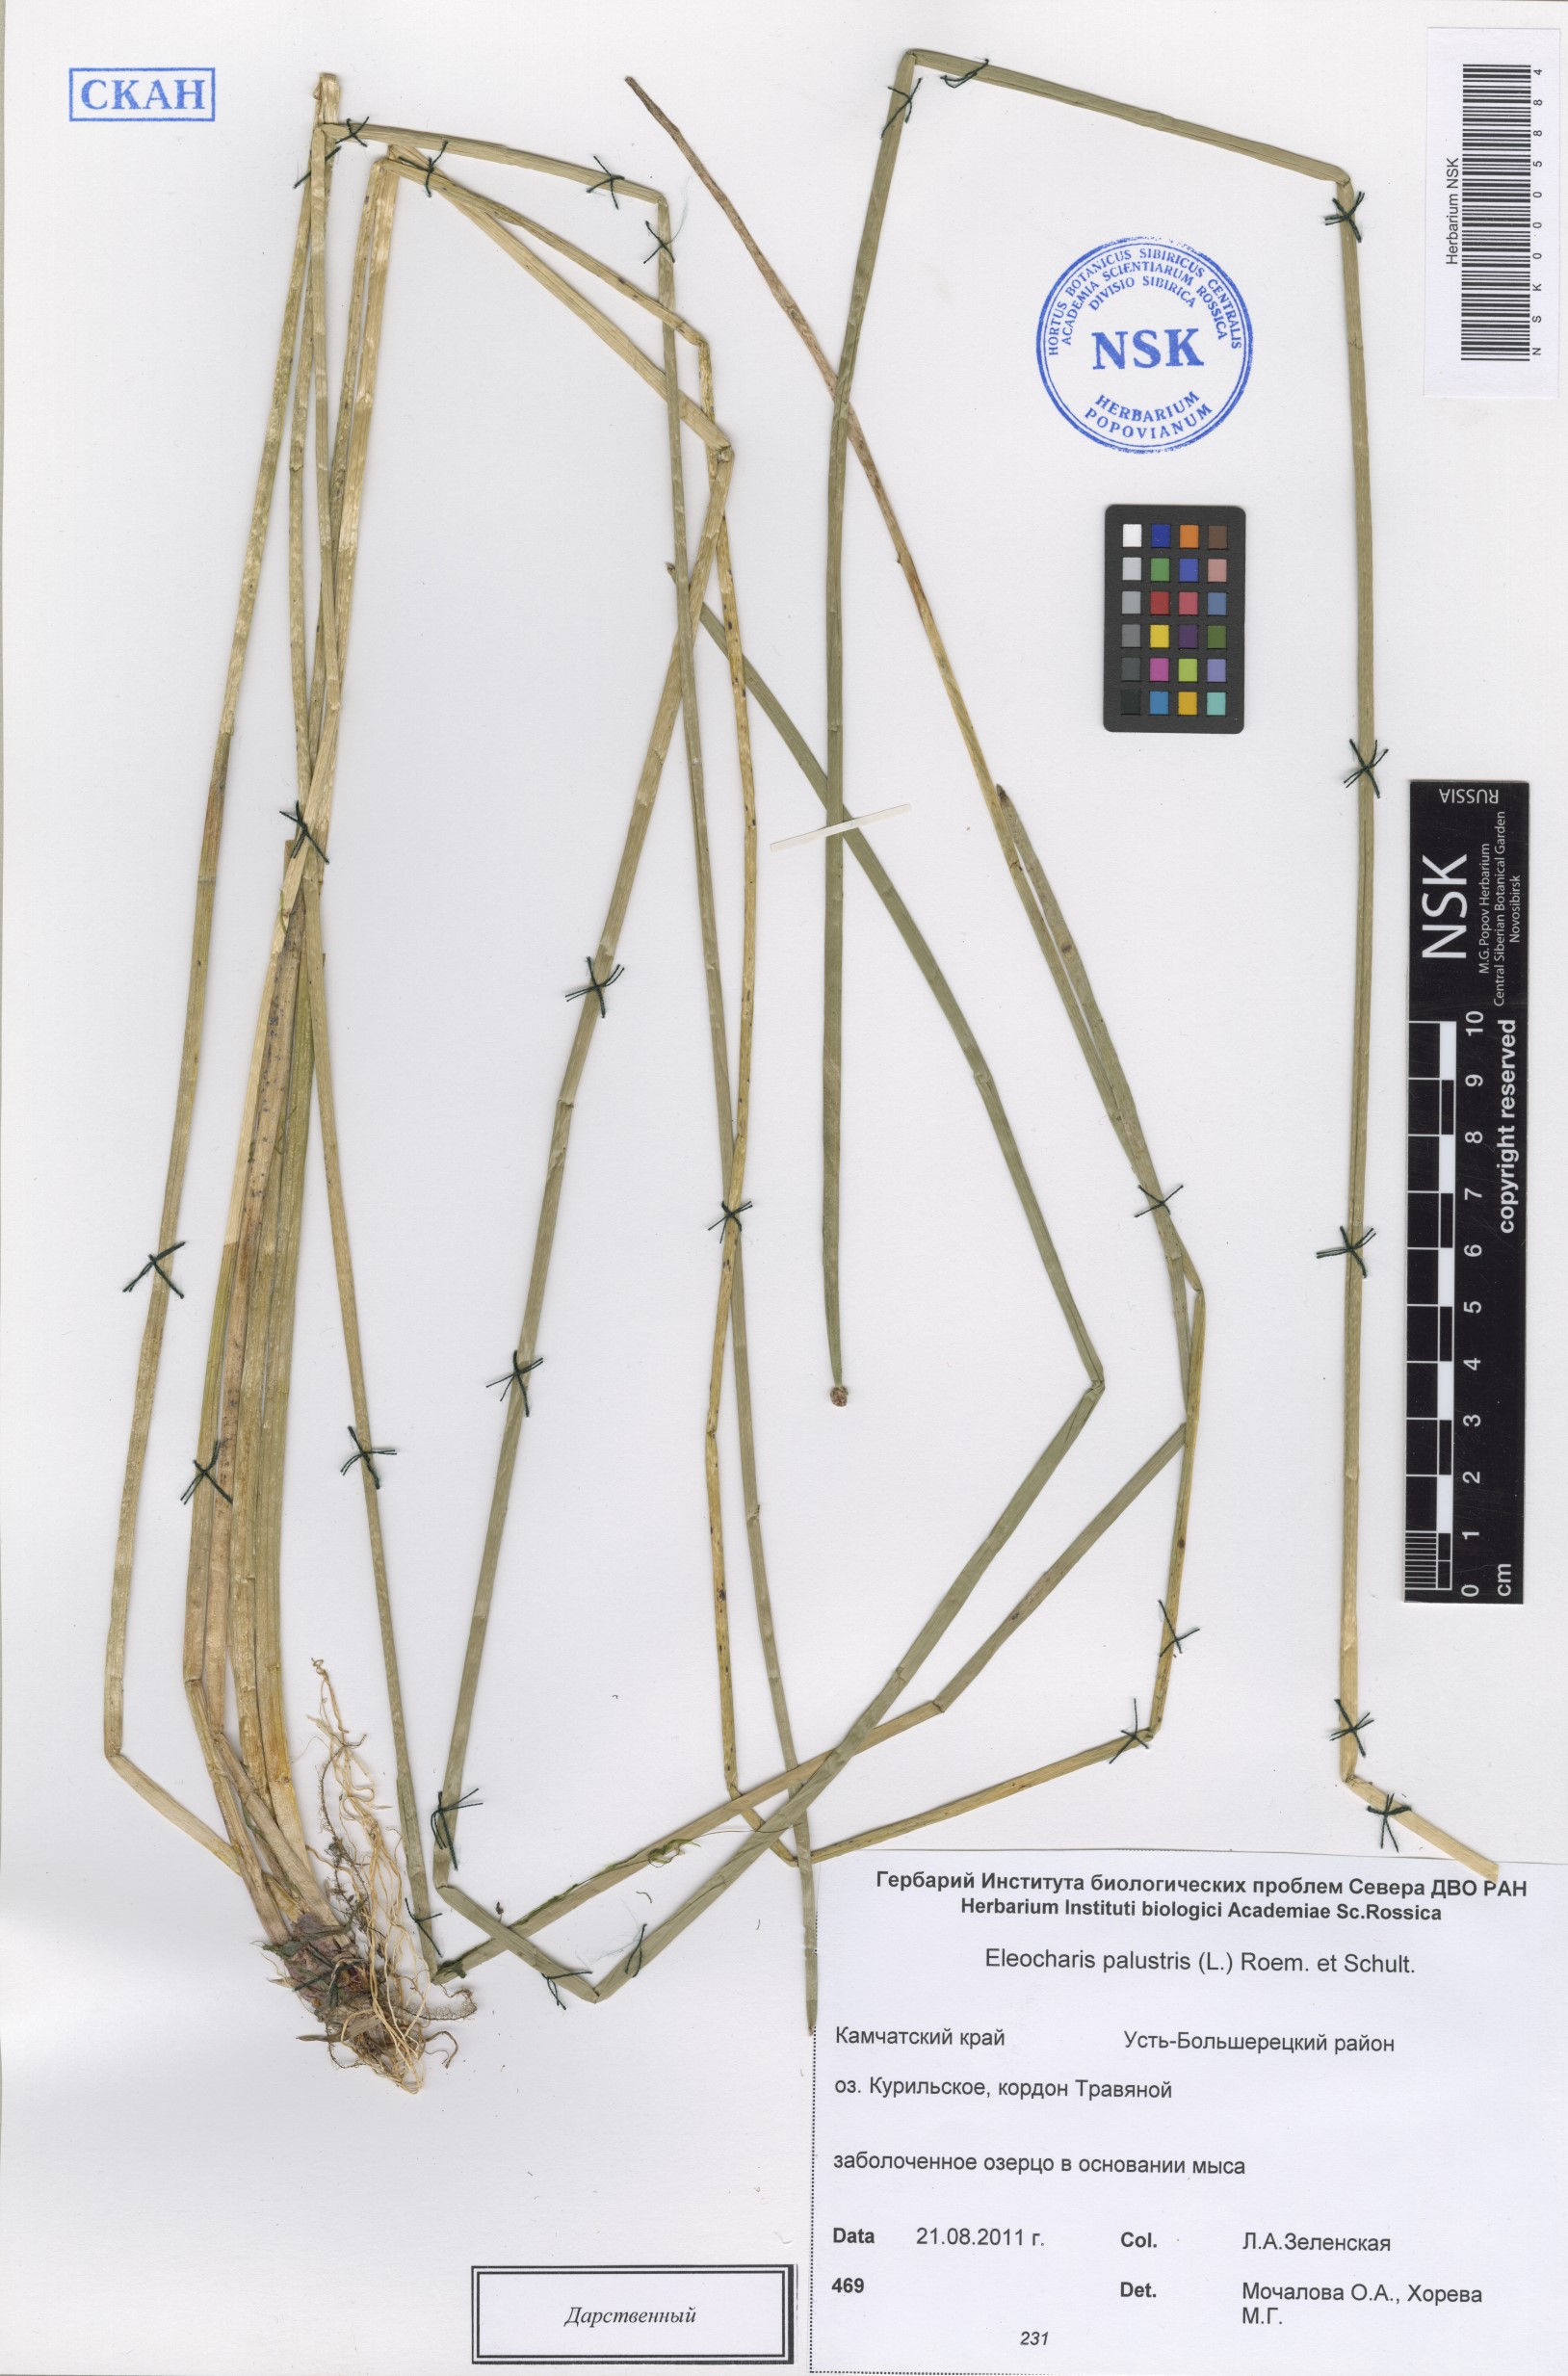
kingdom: Plantae
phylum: Tracheophyta
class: Liliopsida
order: Poales
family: Cyperaceae
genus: Eleocharis
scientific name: Eleocharis kamtschatica
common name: Kamchatka spikerush
